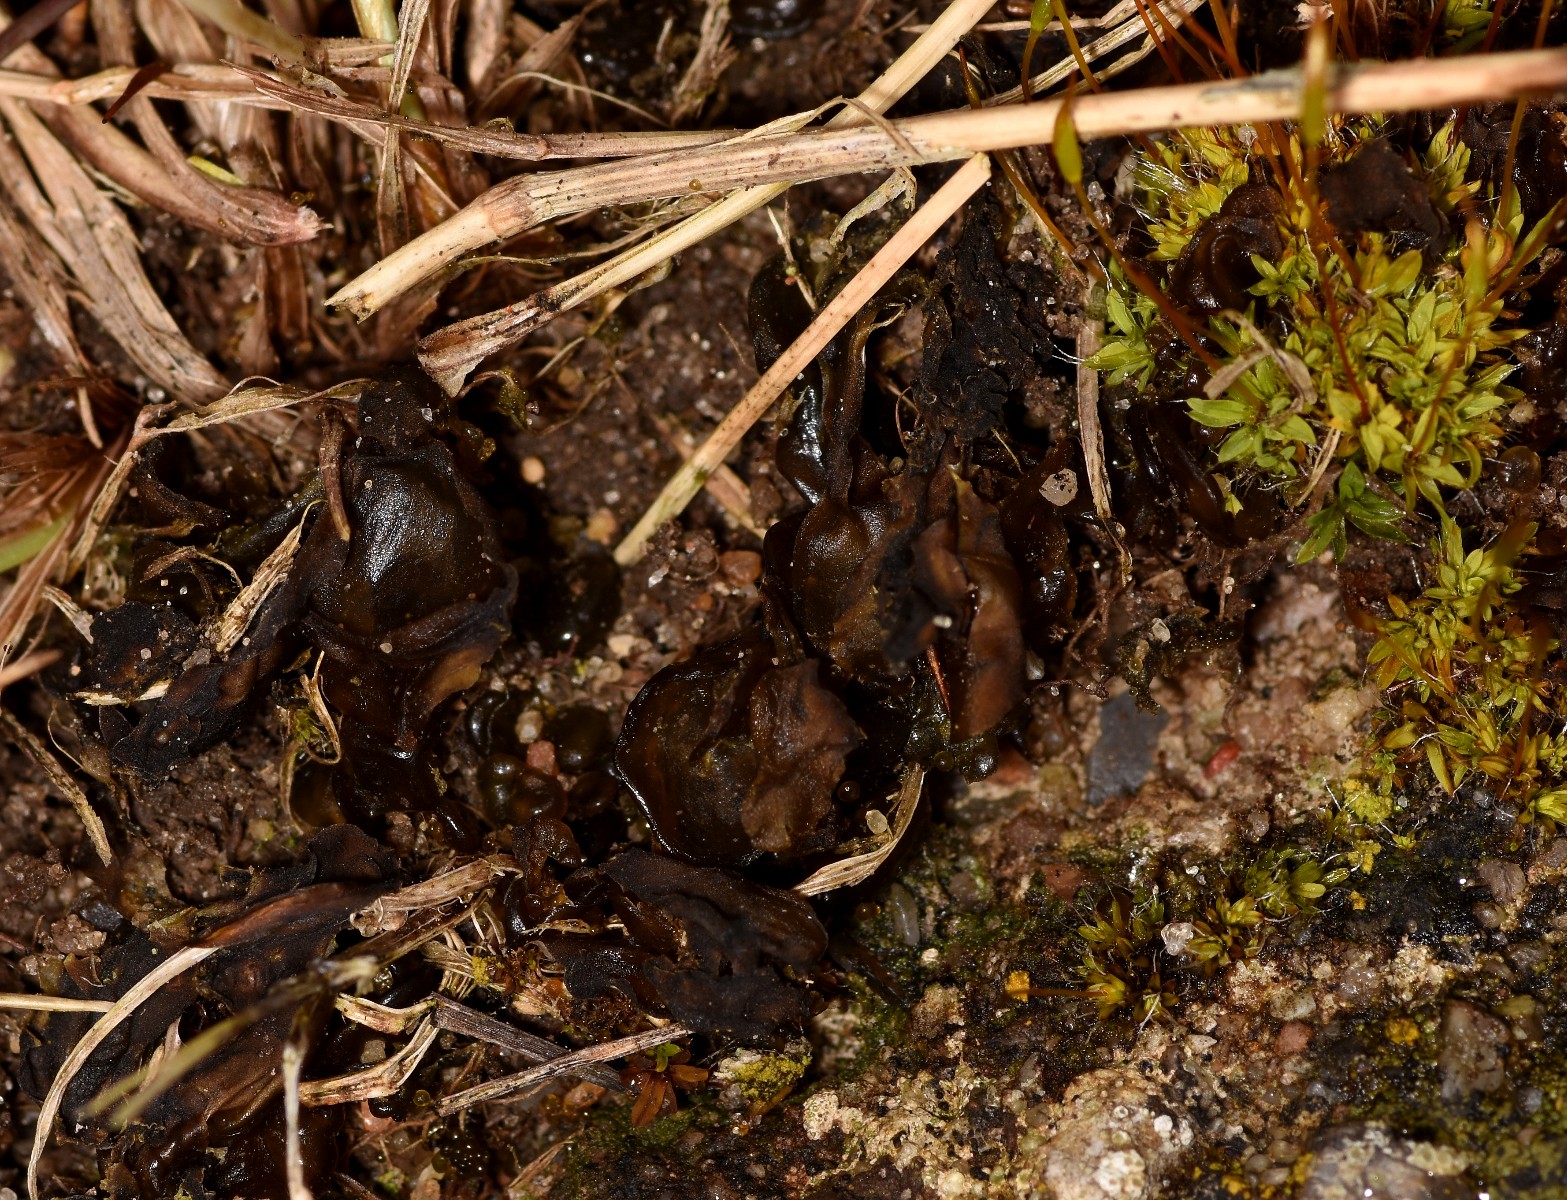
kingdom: Fungi
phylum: Ascomycota
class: Lecanoromycetes
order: Peltigerales
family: Collemataceae
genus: Blennothallia
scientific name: Blennothallia crispa
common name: kruset bævrelav
